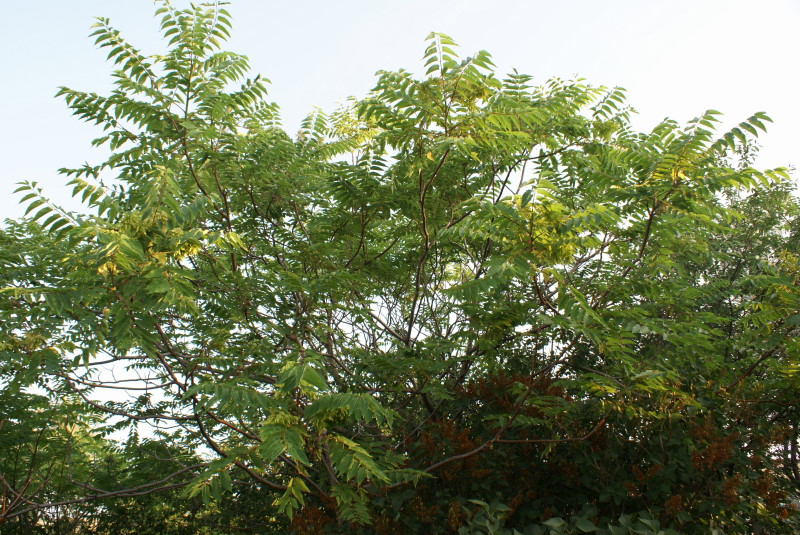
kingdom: Plantae
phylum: Tracheophyta
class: Magnoliopsida
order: Sapindales
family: Simaroubaceae
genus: Ailanthus
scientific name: Ailanthus altissima
